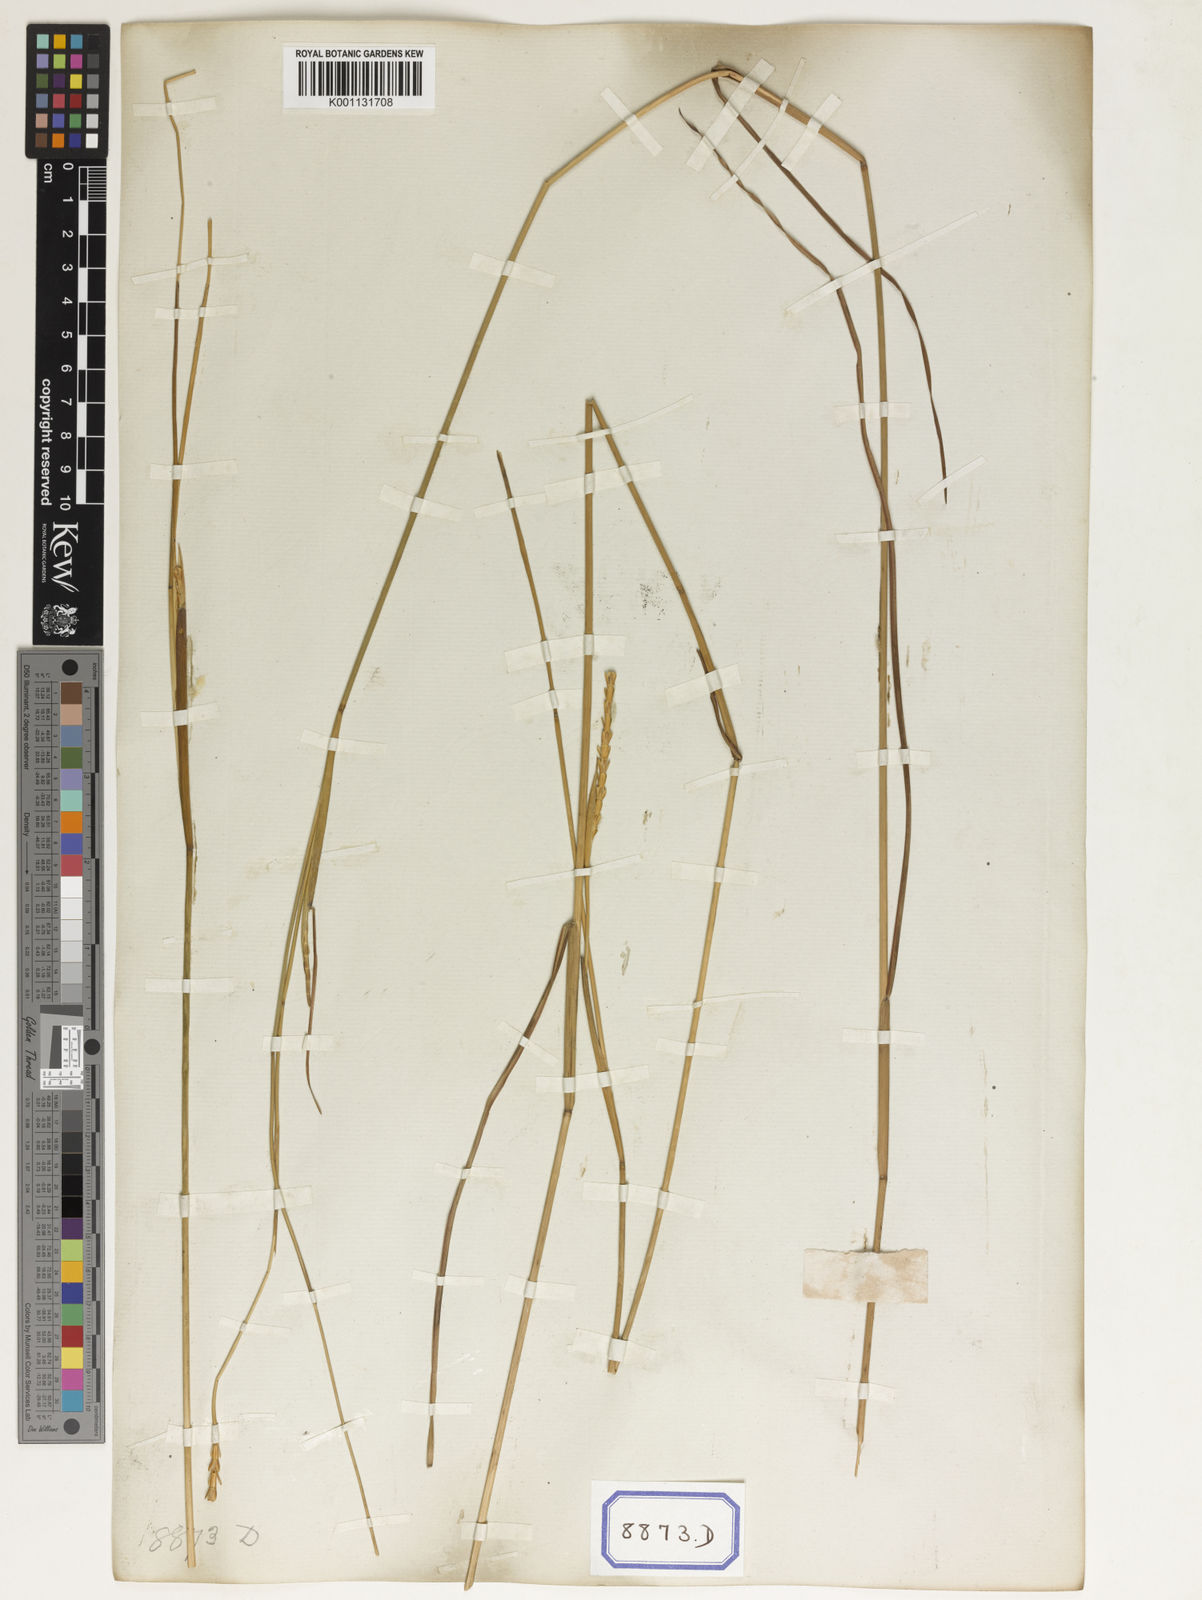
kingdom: Plantae
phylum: Tracheophyta
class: Liliopsida
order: Poales
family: Poaceae
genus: Mnesithea
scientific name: Mnesithea laevis
